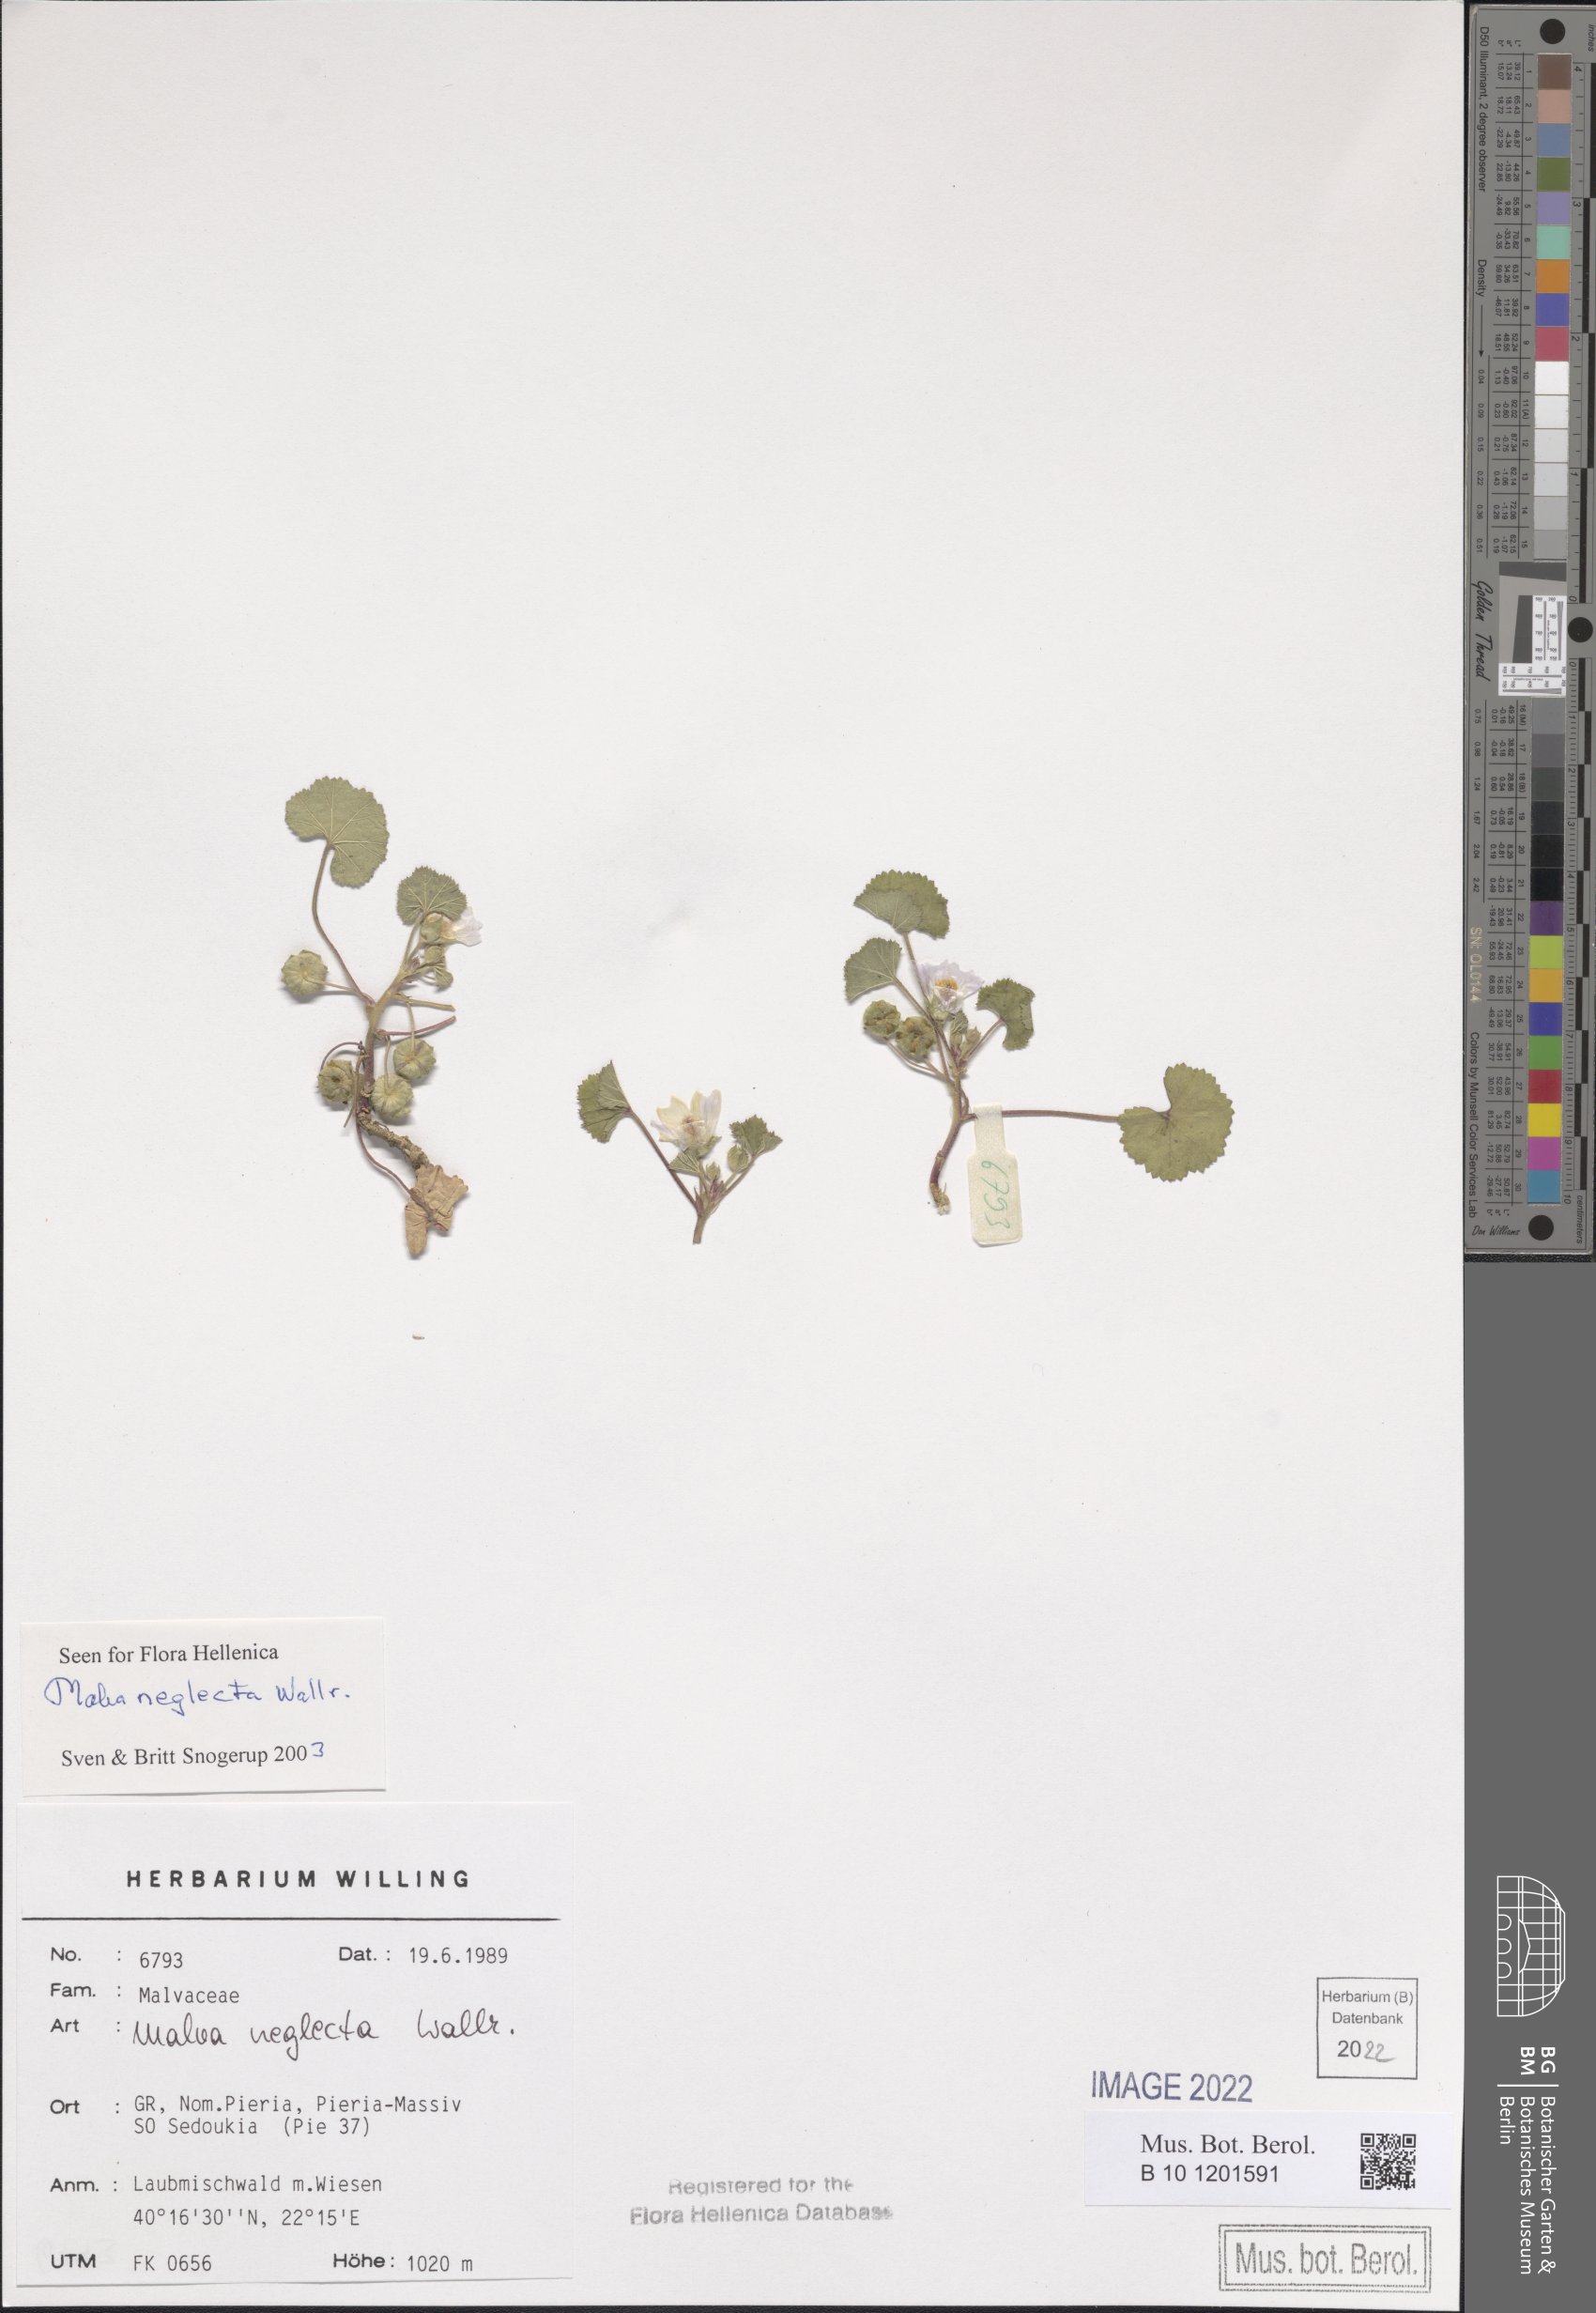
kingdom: Plantae
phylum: Tracheophyta
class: Magnoliopsida
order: Malvales
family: Malvaceae
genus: Malva
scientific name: Malva neglecta
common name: Common mallow
